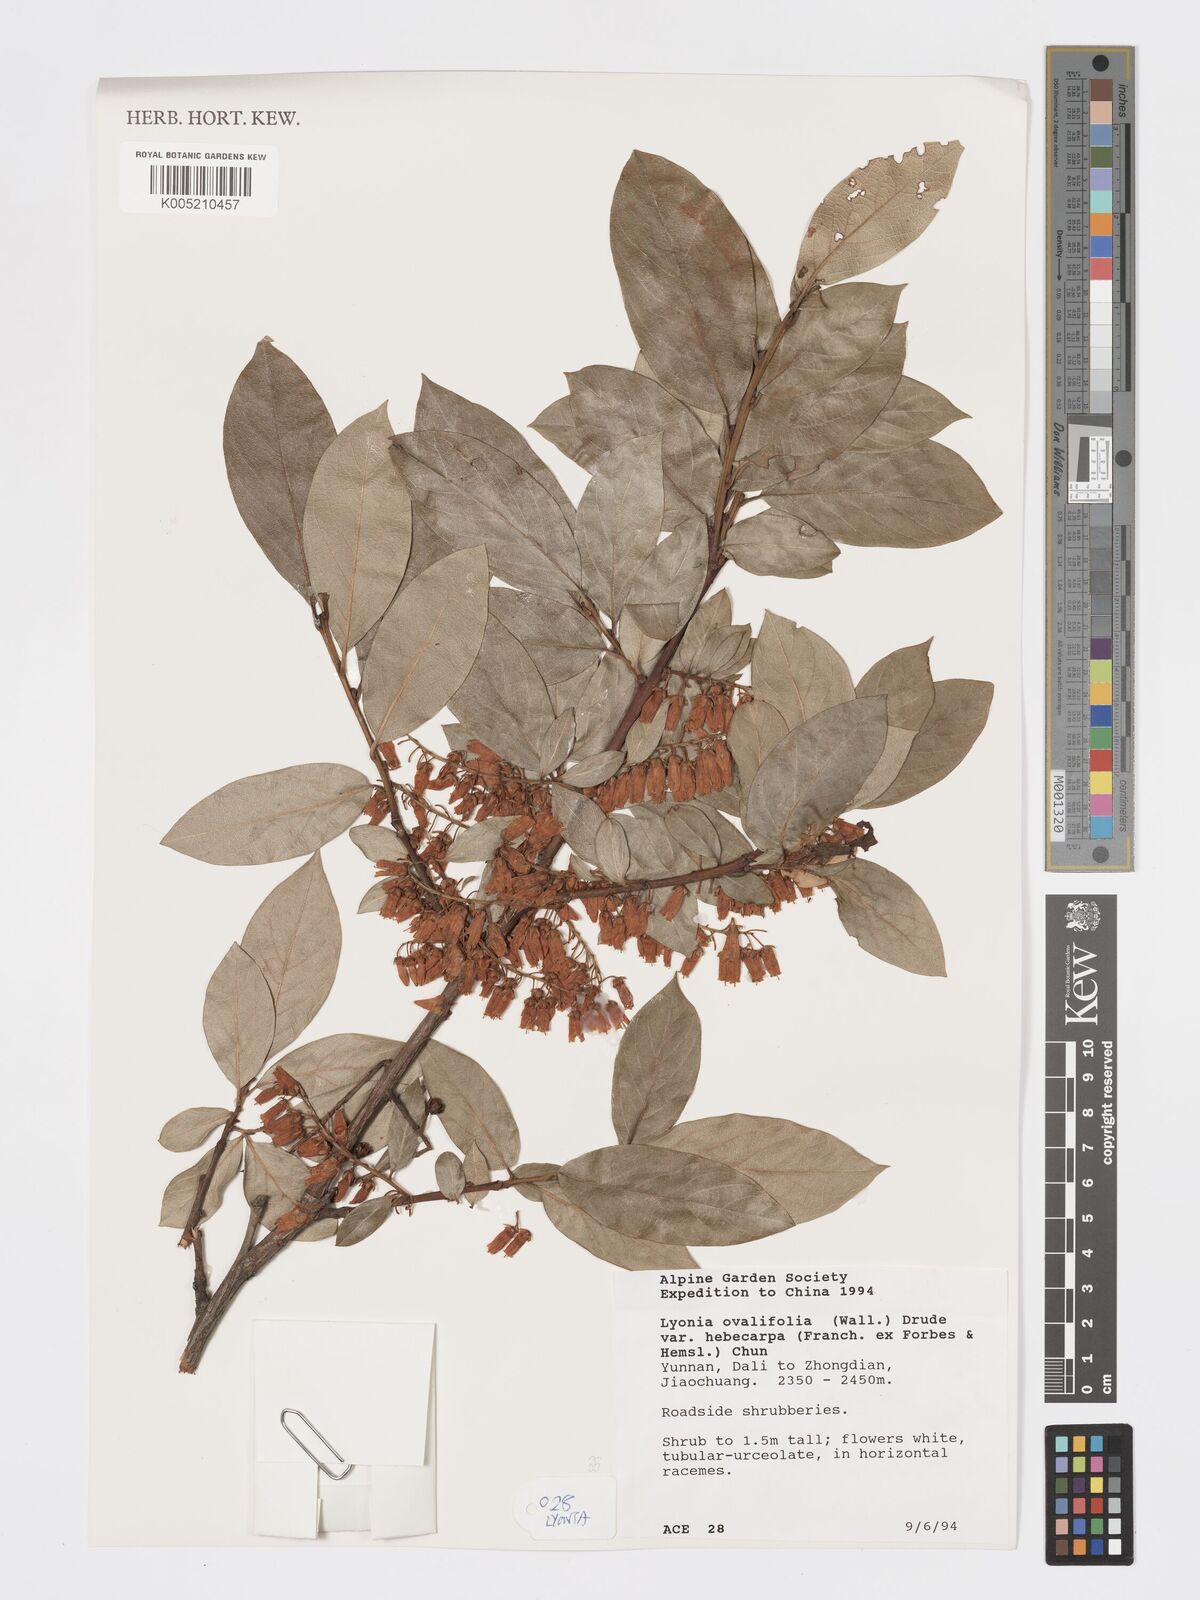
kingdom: Plantae
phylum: Tracheophyta
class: Magnoliopsida
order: Ericales
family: Ericaceae
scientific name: Ericaceae
